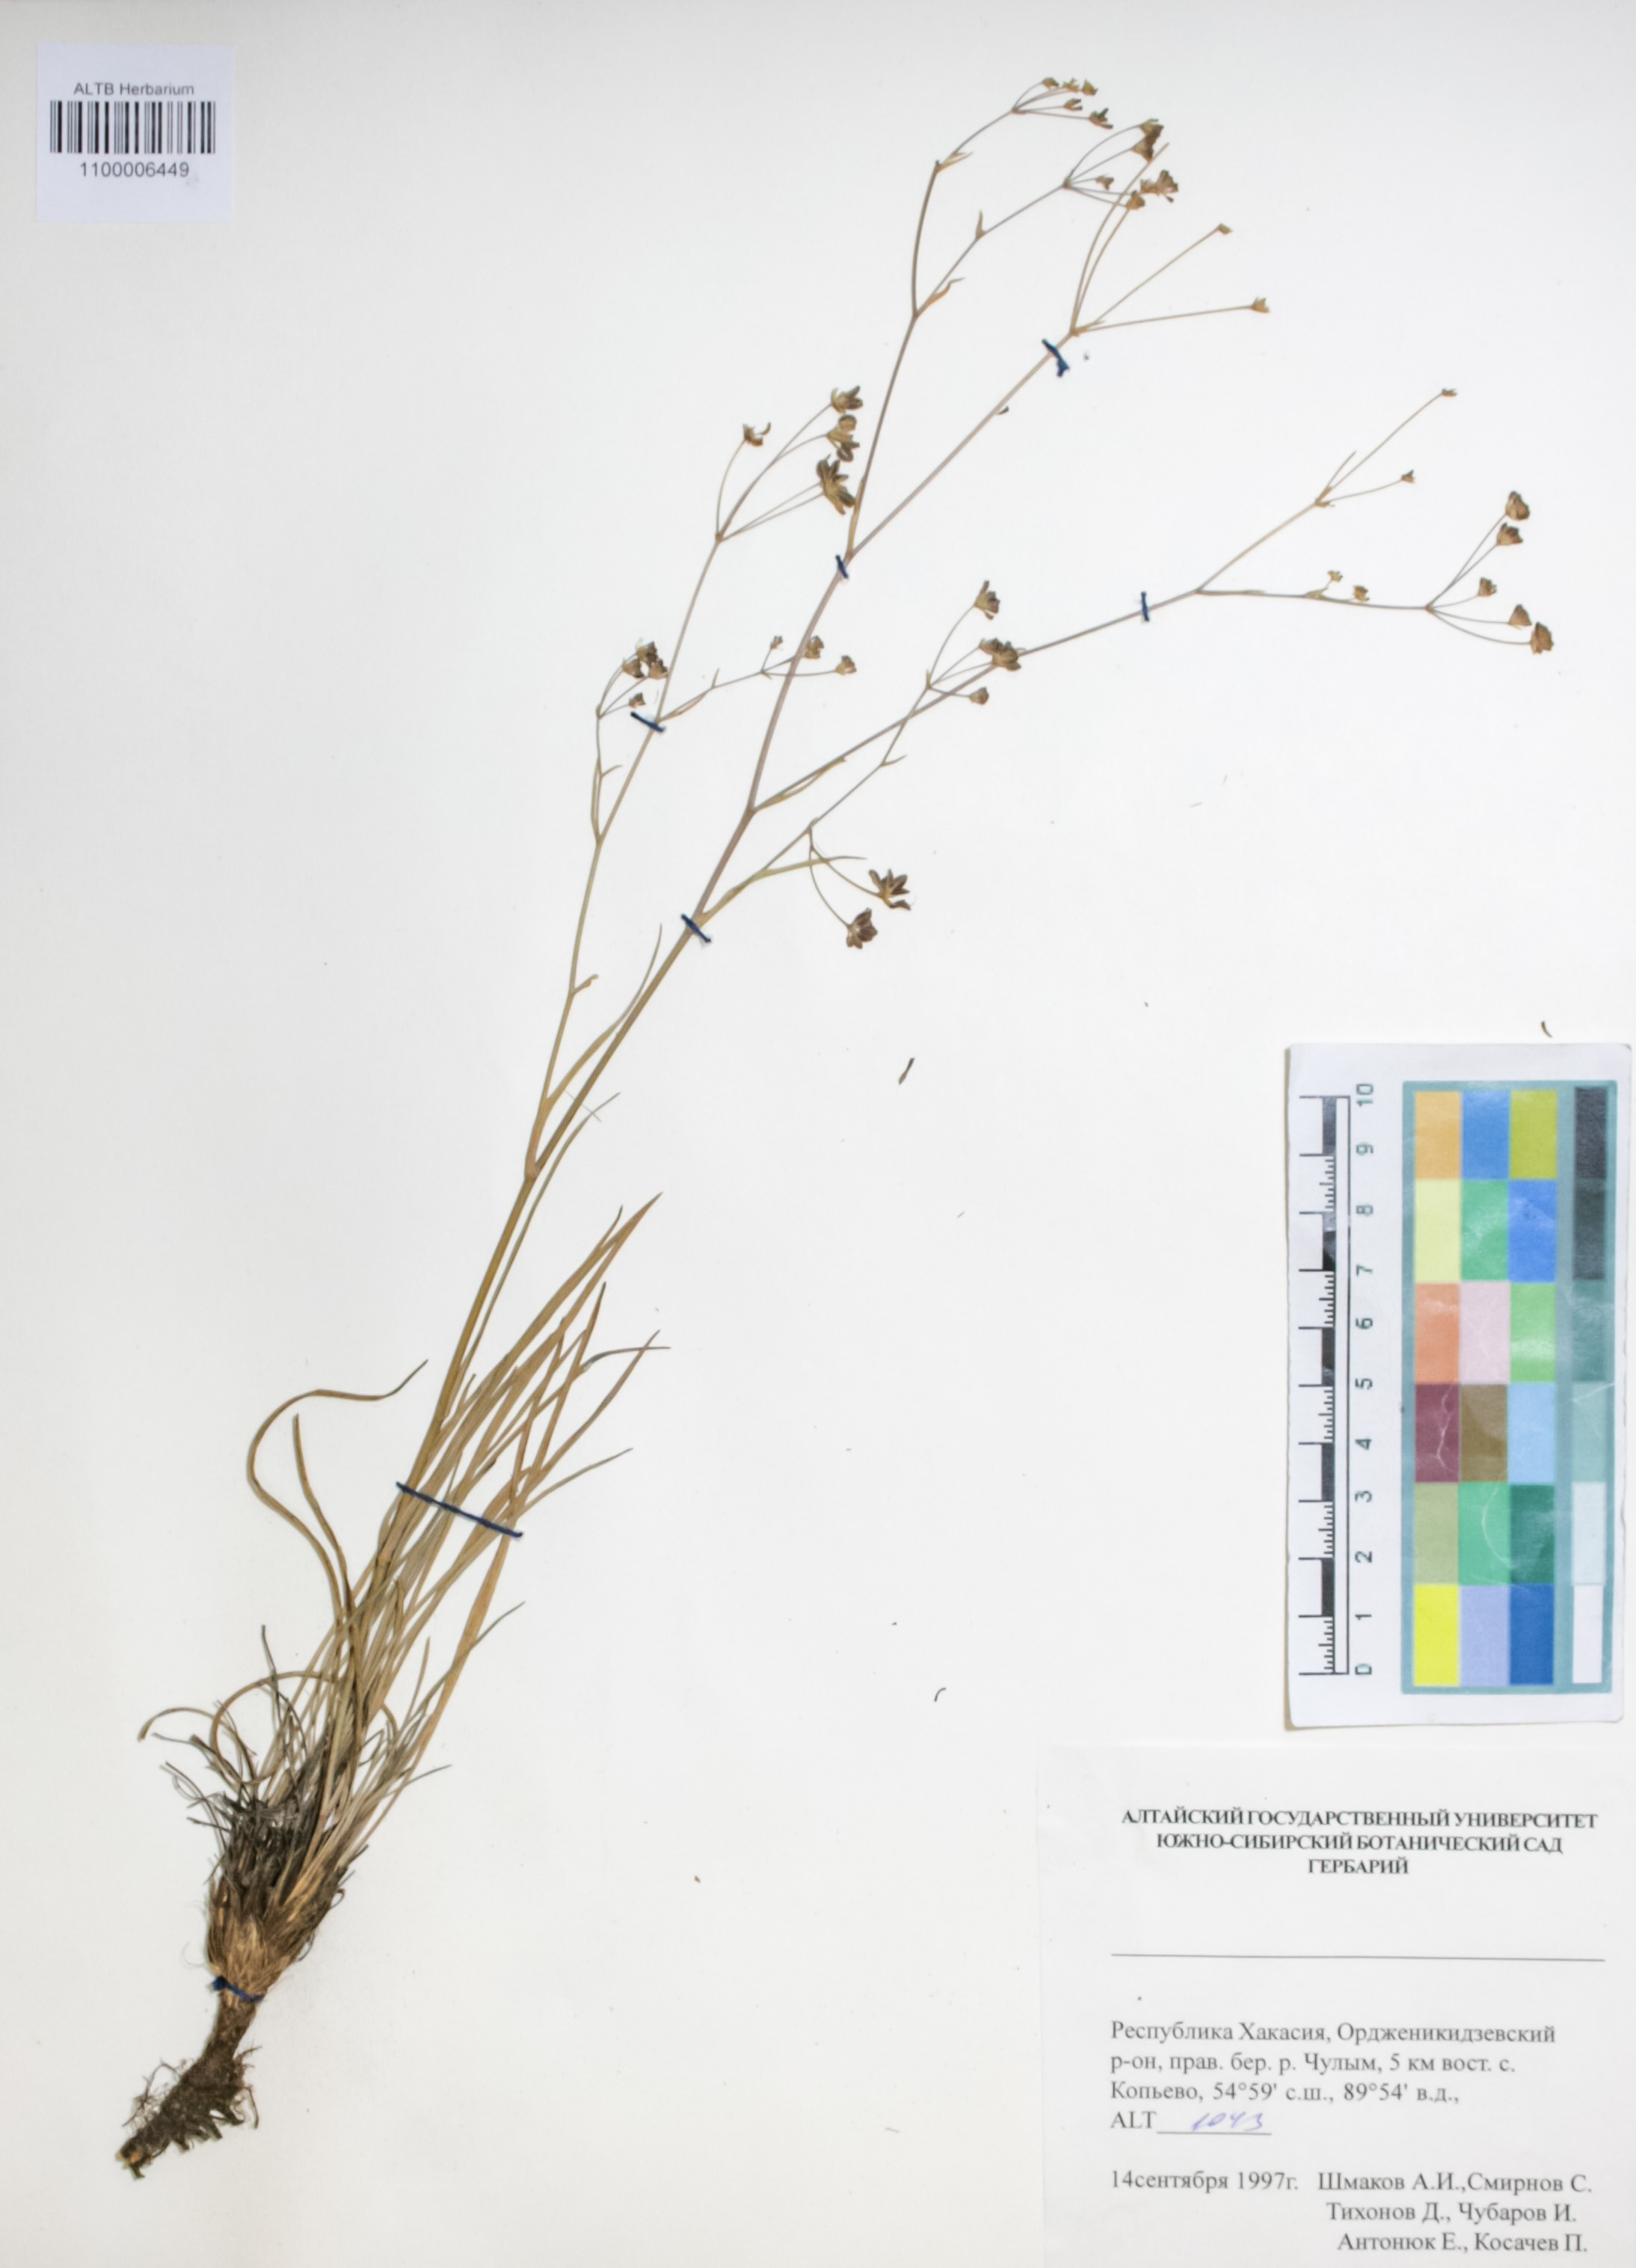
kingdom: Plantae
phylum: Tracheophyta
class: Magnoliopsida
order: Apiales
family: Apiaceae
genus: Bupleurum
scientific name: Bupleurum scorzonerifolium
